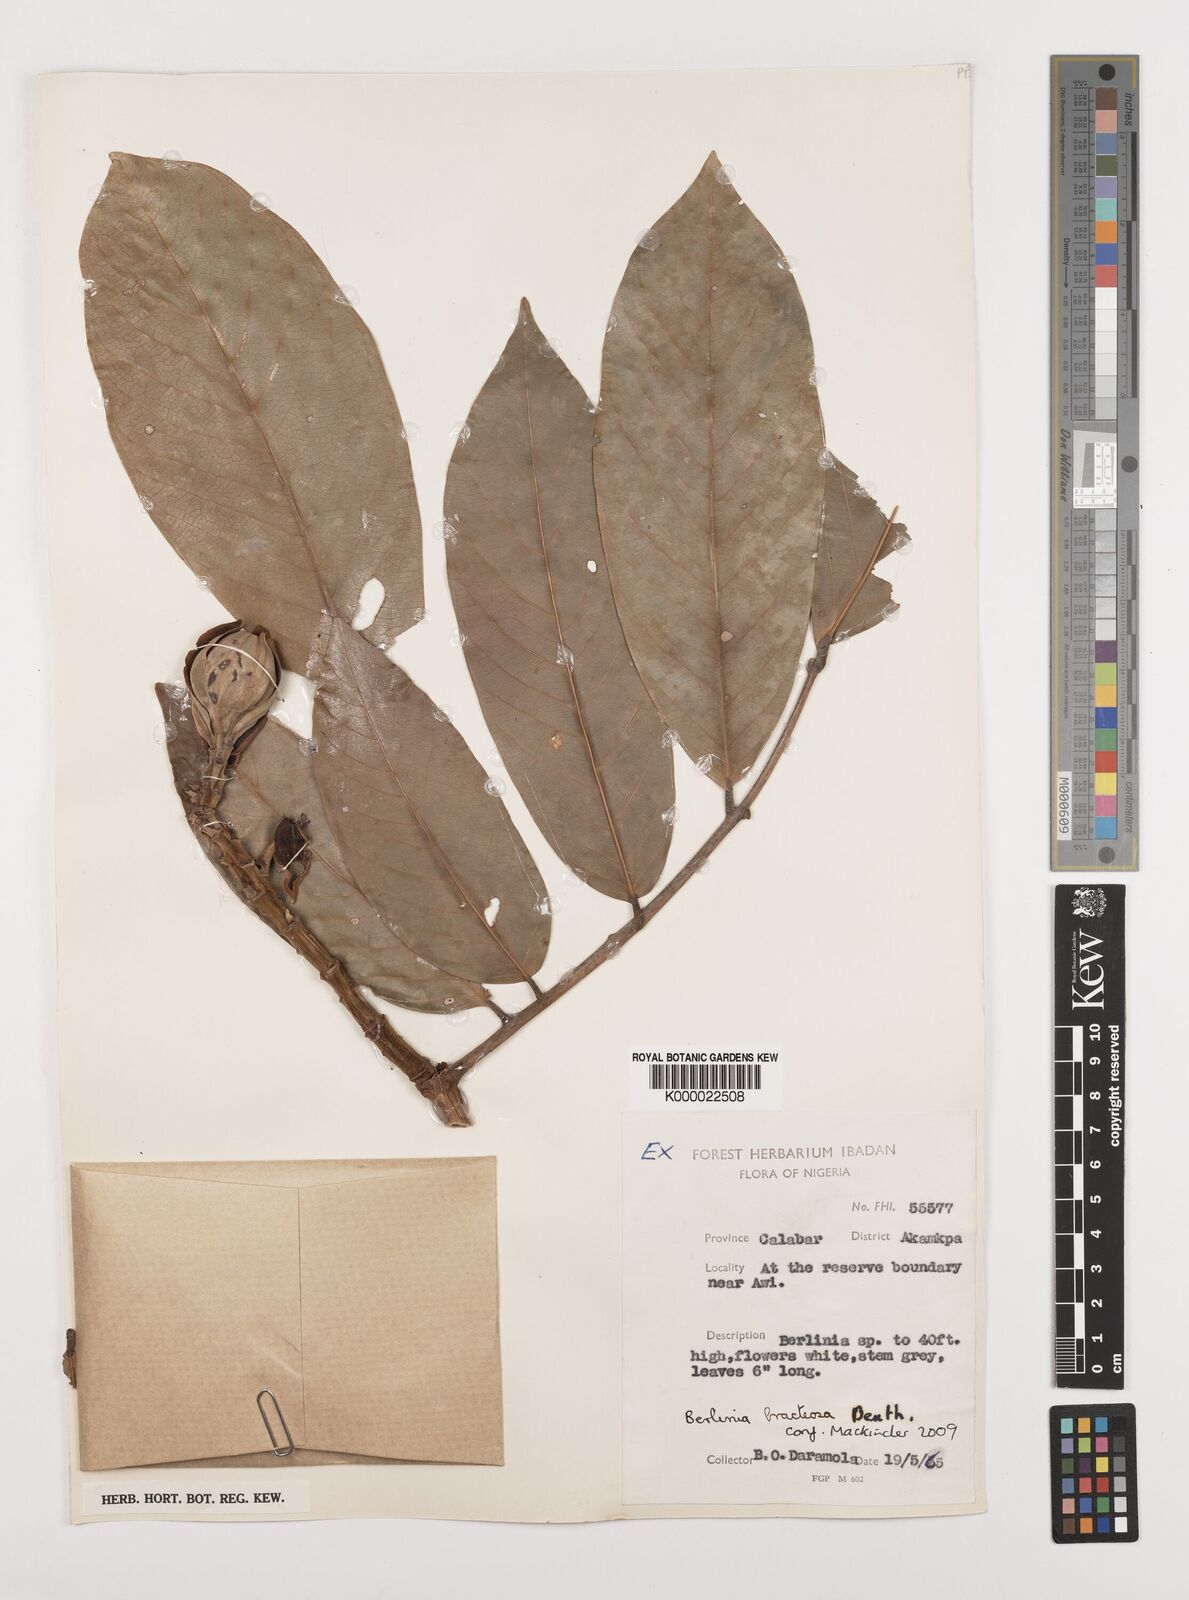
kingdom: Plantae
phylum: Tracheophyta
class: Magnoliopsida
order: Fabales
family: Fabaceae
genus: Berlinia
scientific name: Berlinia bracteosa
